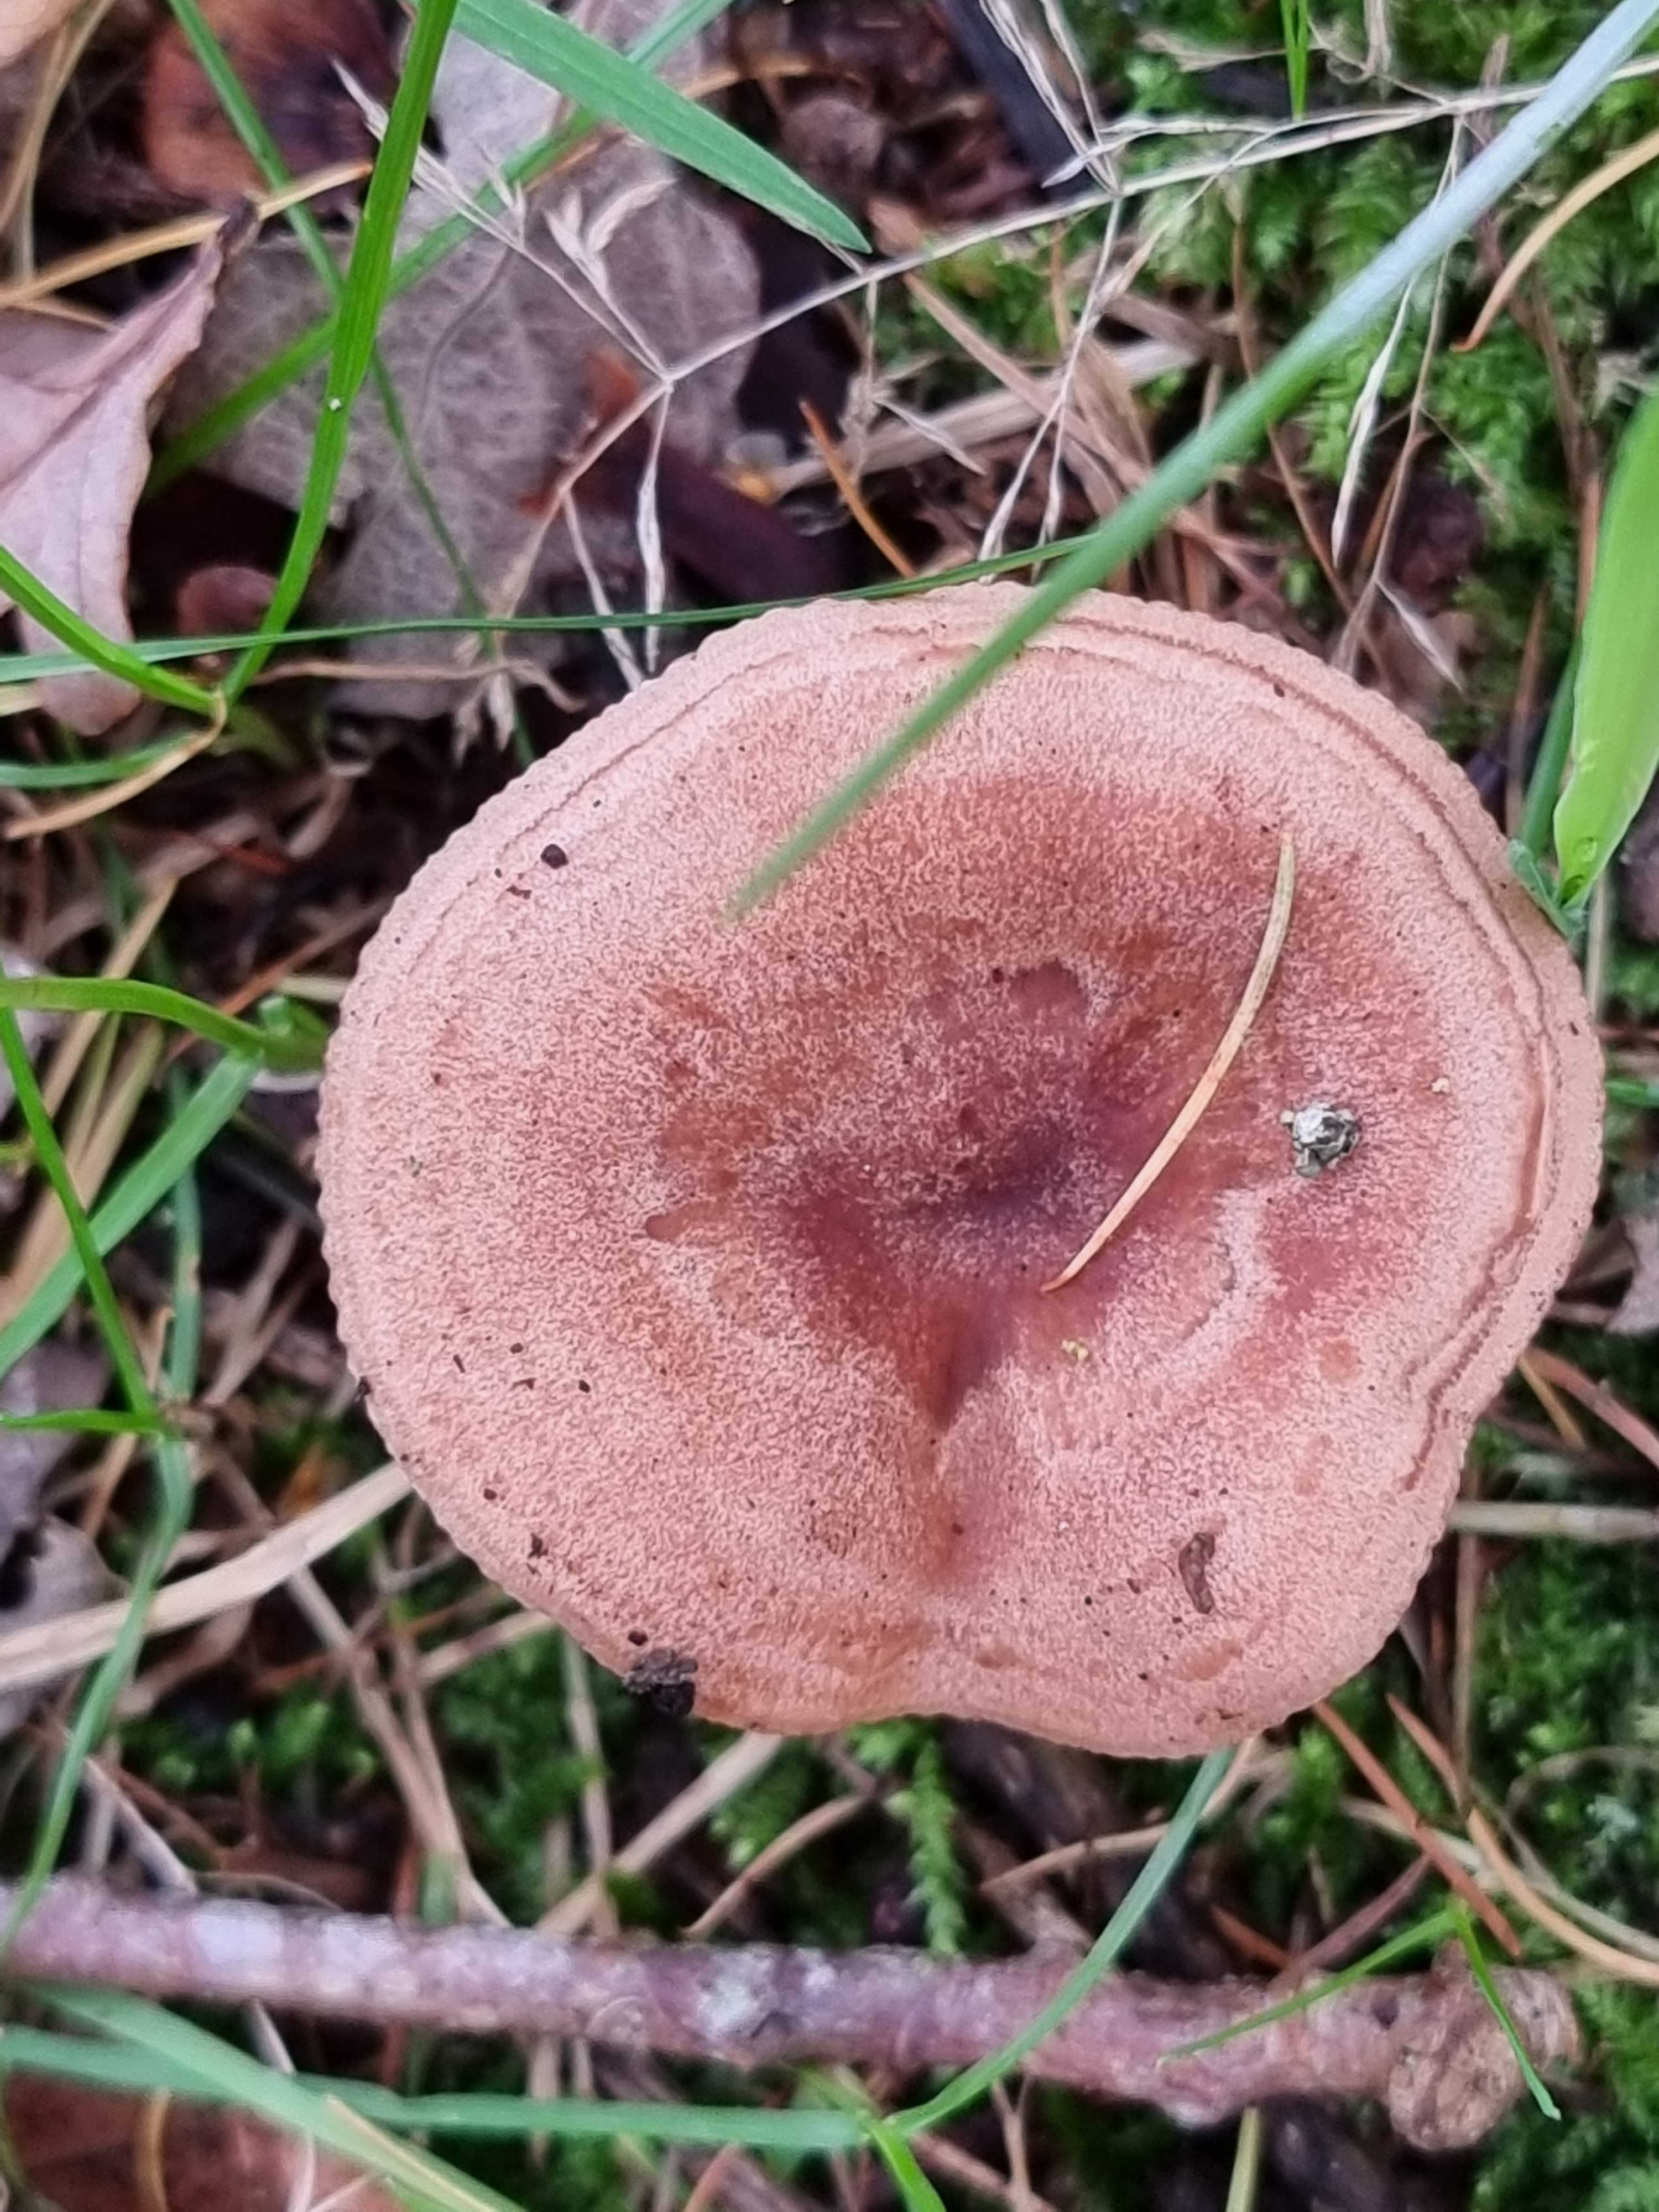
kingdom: Fungi
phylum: Basidiomycota
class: Agaricomycetes
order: Russulales
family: Russulaceae
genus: Lactarius
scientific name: Lactarius quietus
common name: ege-mælkehat
